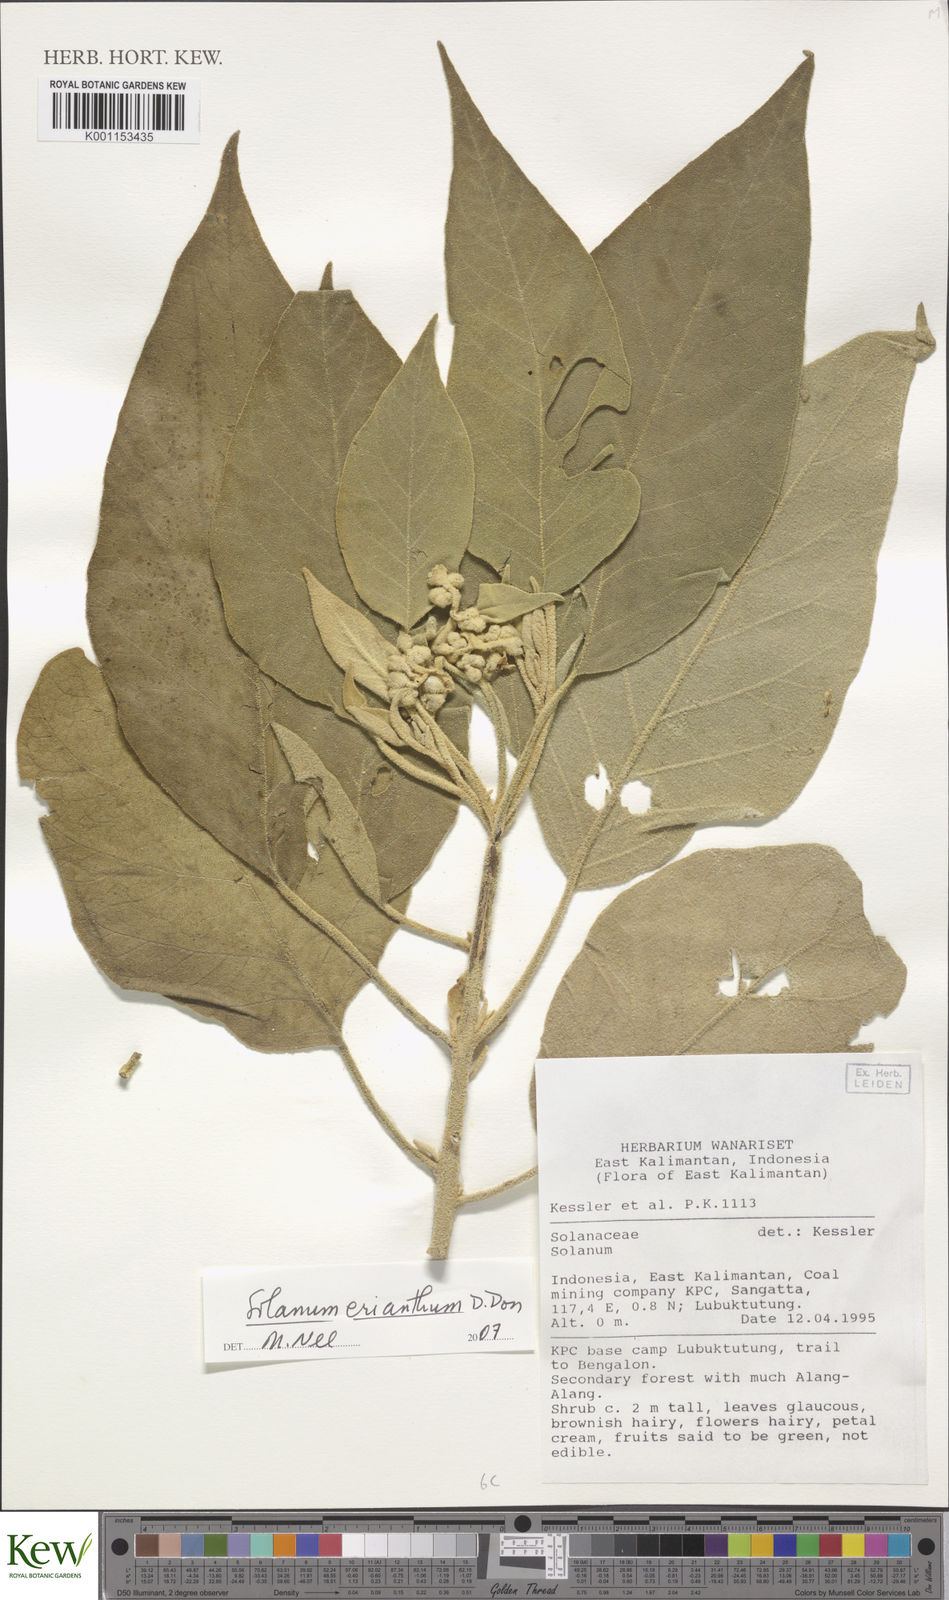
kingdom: Plantae
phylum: Tracheophyta
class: Magnoliopsida
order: Solanales
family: Solanaceae
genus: Solanum
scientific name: Solanum erianthum
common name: Tobacco-tree
